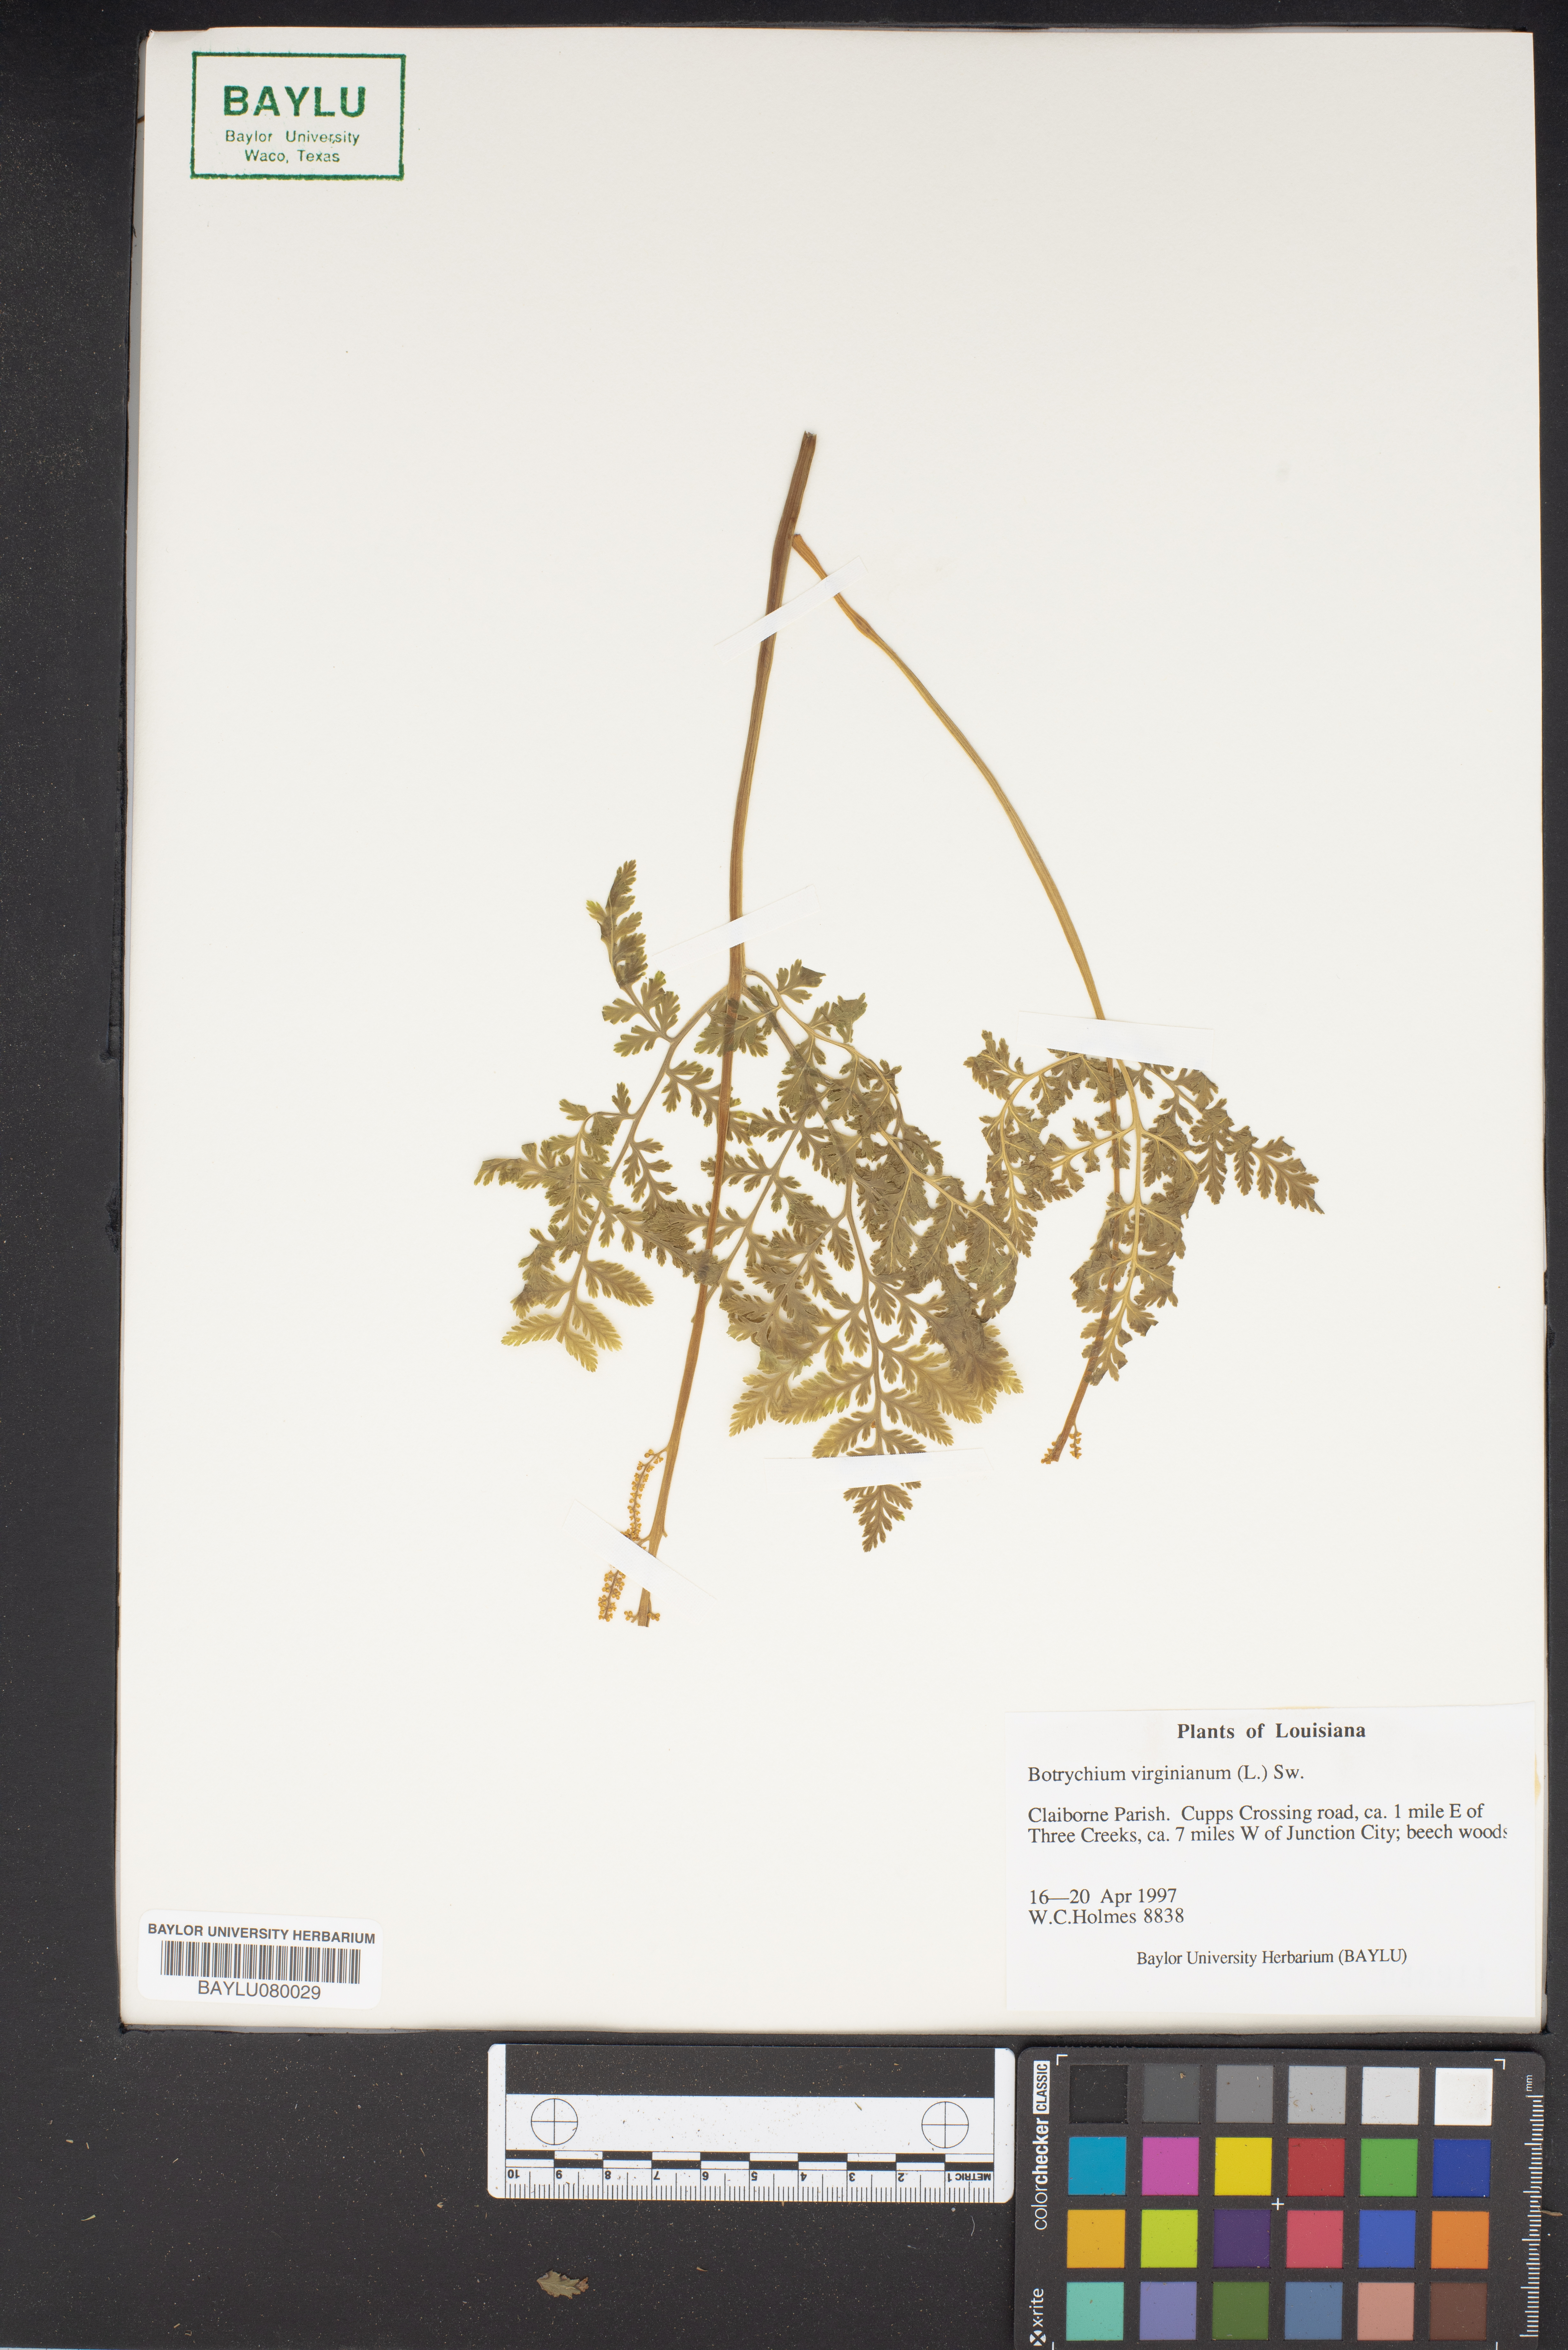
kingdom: Plantae
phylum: Tracheophyta
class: Polypodiopsida
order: Ophioglossales
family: Ophioglossaceae
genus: Botrypus
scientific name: Botrypus virginianus
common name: Common grapefern
